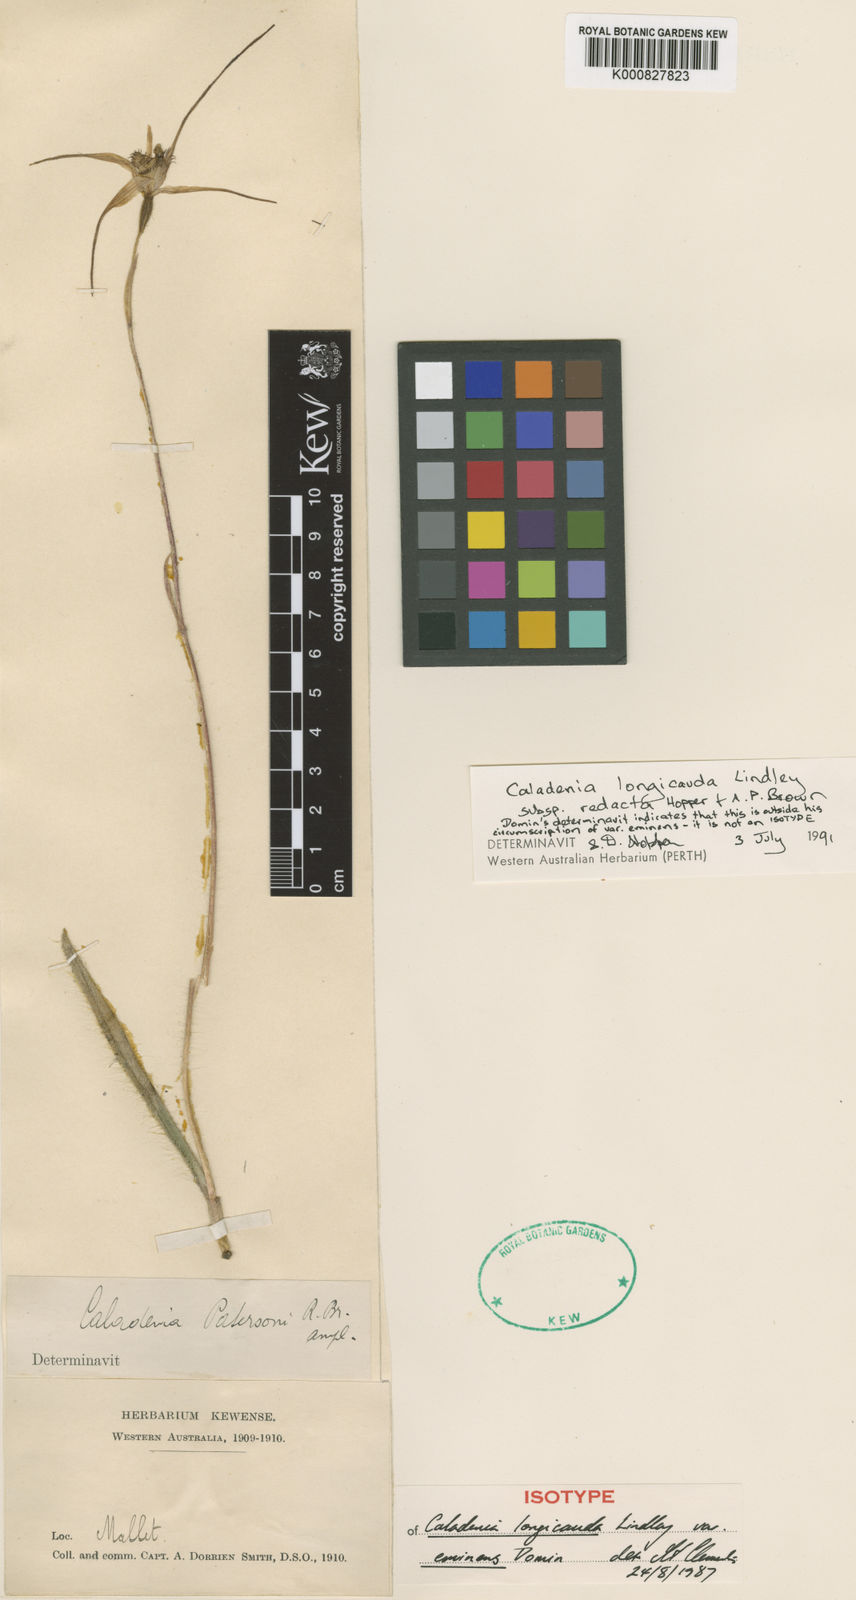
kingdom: Plantae
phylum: Tracheophyta
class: Liliopsida
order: Asparagales
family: Orchidaceae
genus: Caladenia
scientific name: Caladenia longicauda
